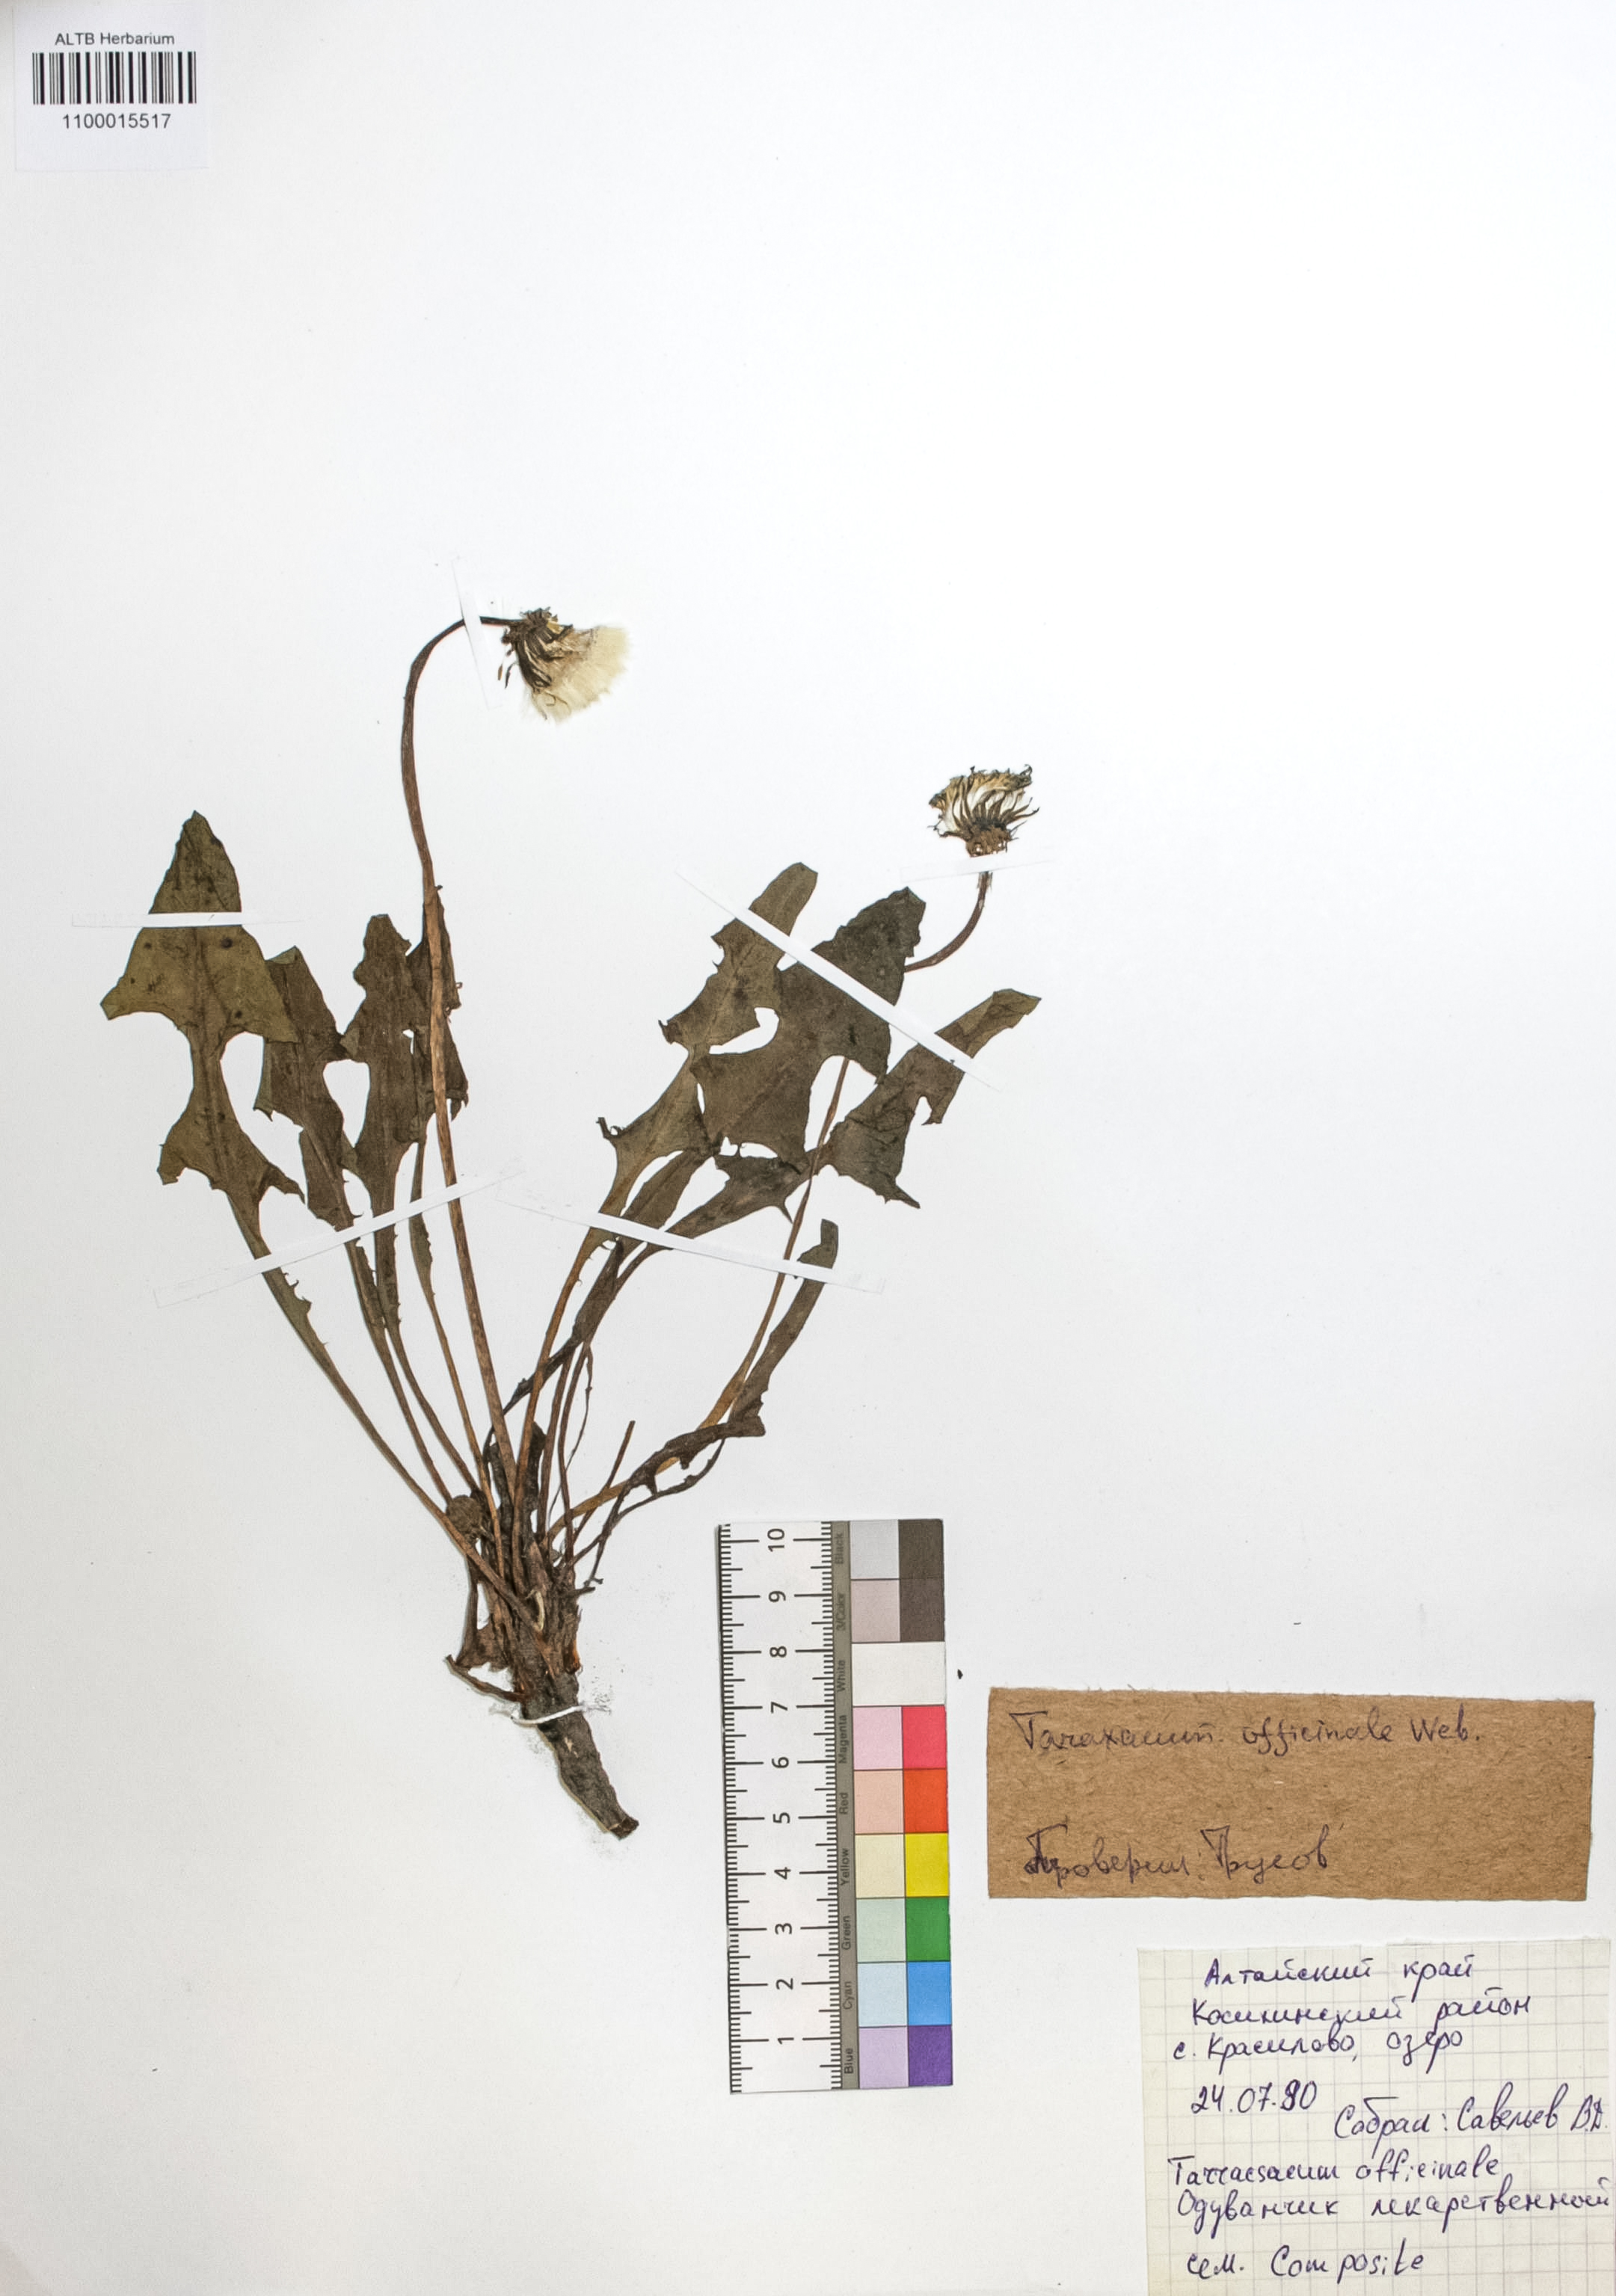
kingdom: Plantae
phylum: Tracheophyta
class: Magnoliopsida
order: Asterales
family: Asteraceae
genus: Taraxacum
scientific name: Taraxacum officinale
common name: Common dandelion
